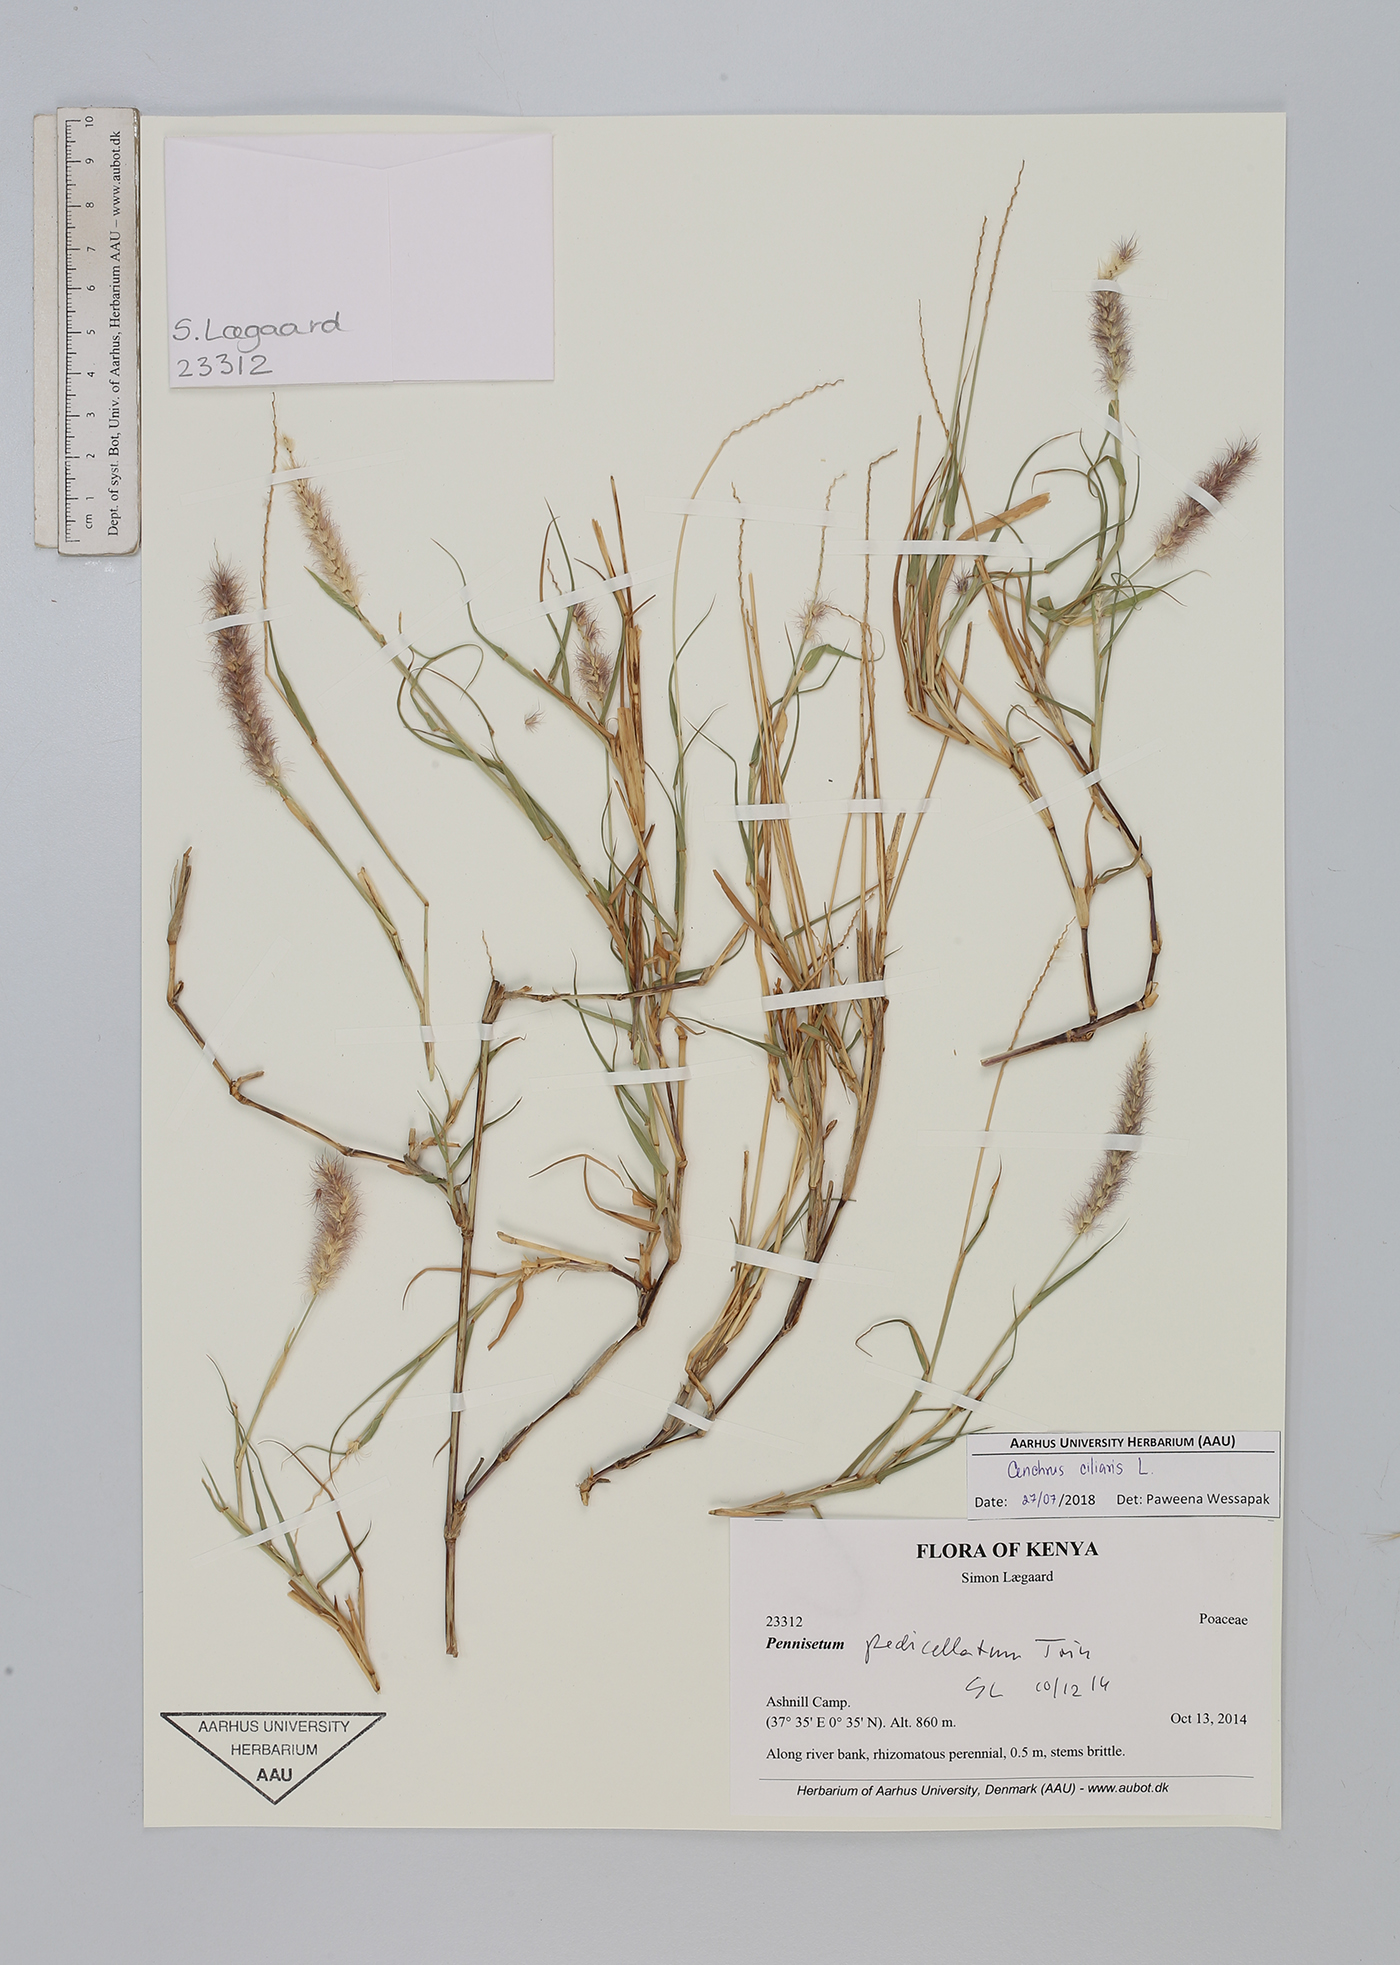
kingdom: Plantae
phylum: Tracheophyta
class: Liliopsida
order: Poales
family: Poaceae
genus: Cenchrus
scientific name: Cenchrus ciliaris
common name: Buffelgrass
